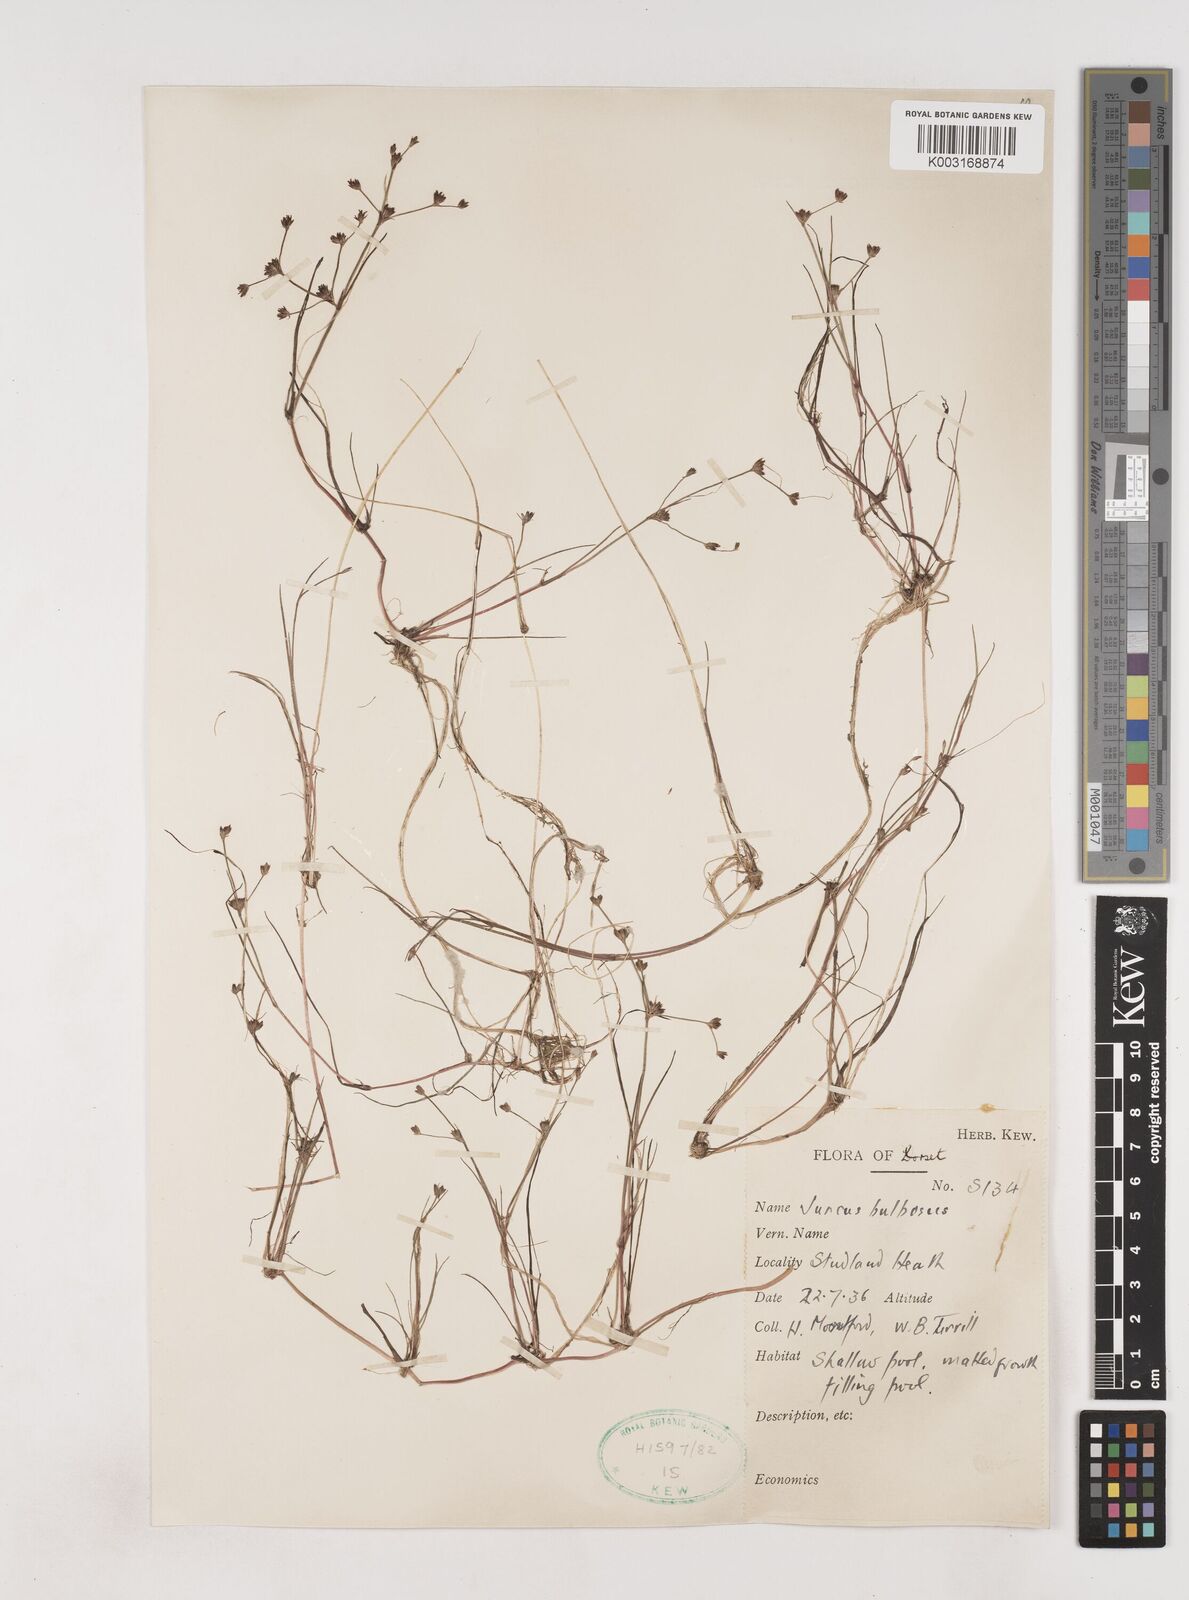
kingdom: Plantae
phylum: Tracheophyta
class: Liliopsida
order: Poales
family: Juncaceae
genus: Juncus
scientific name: Juncus bulbosus
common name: Bulbous rush
